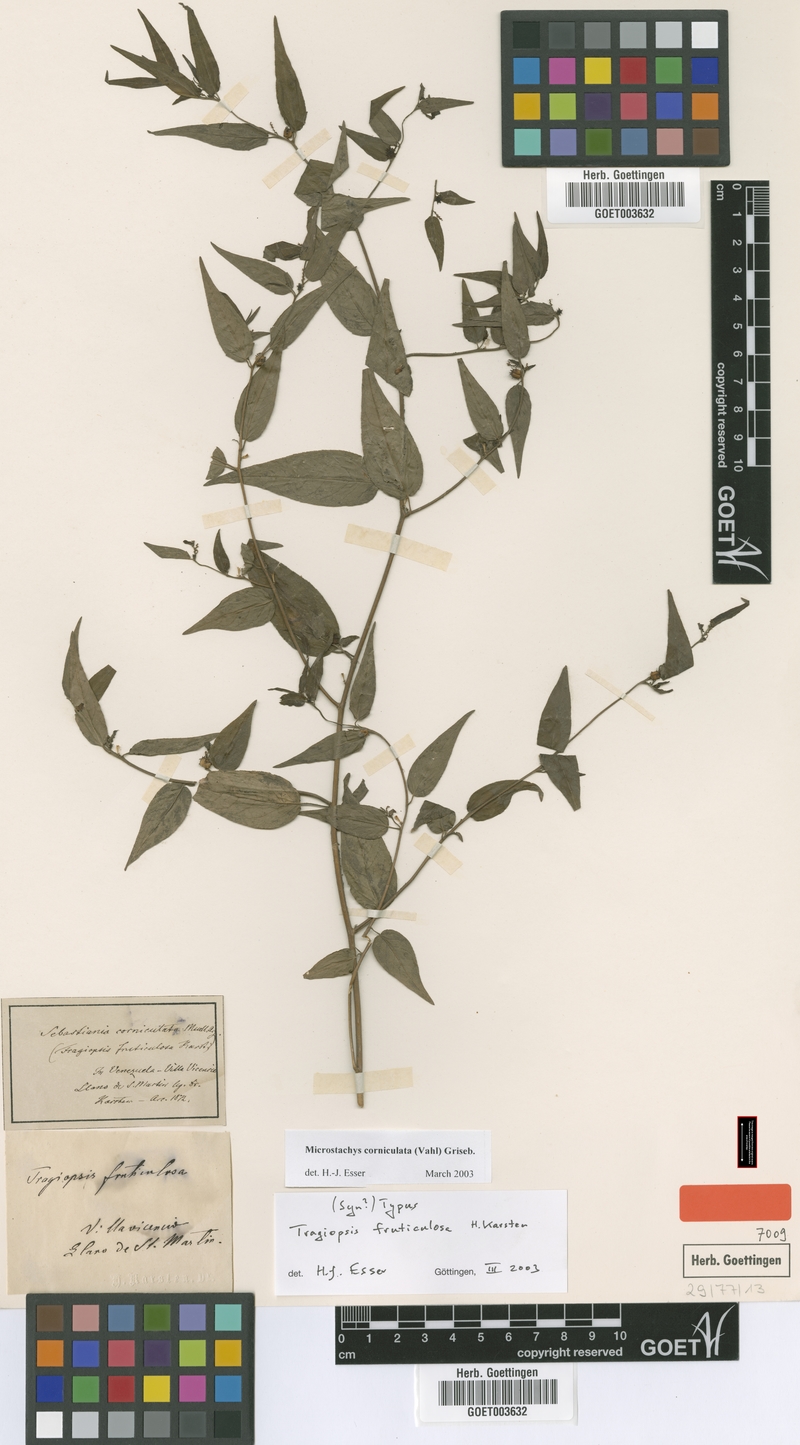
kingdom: Plantae
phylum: Tracheophyta
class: Magnoliopsida
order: Malpighiales
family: Euphorbiaceae
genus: Microstachys
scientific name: Microstachys corniculata
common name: Hato tejas
